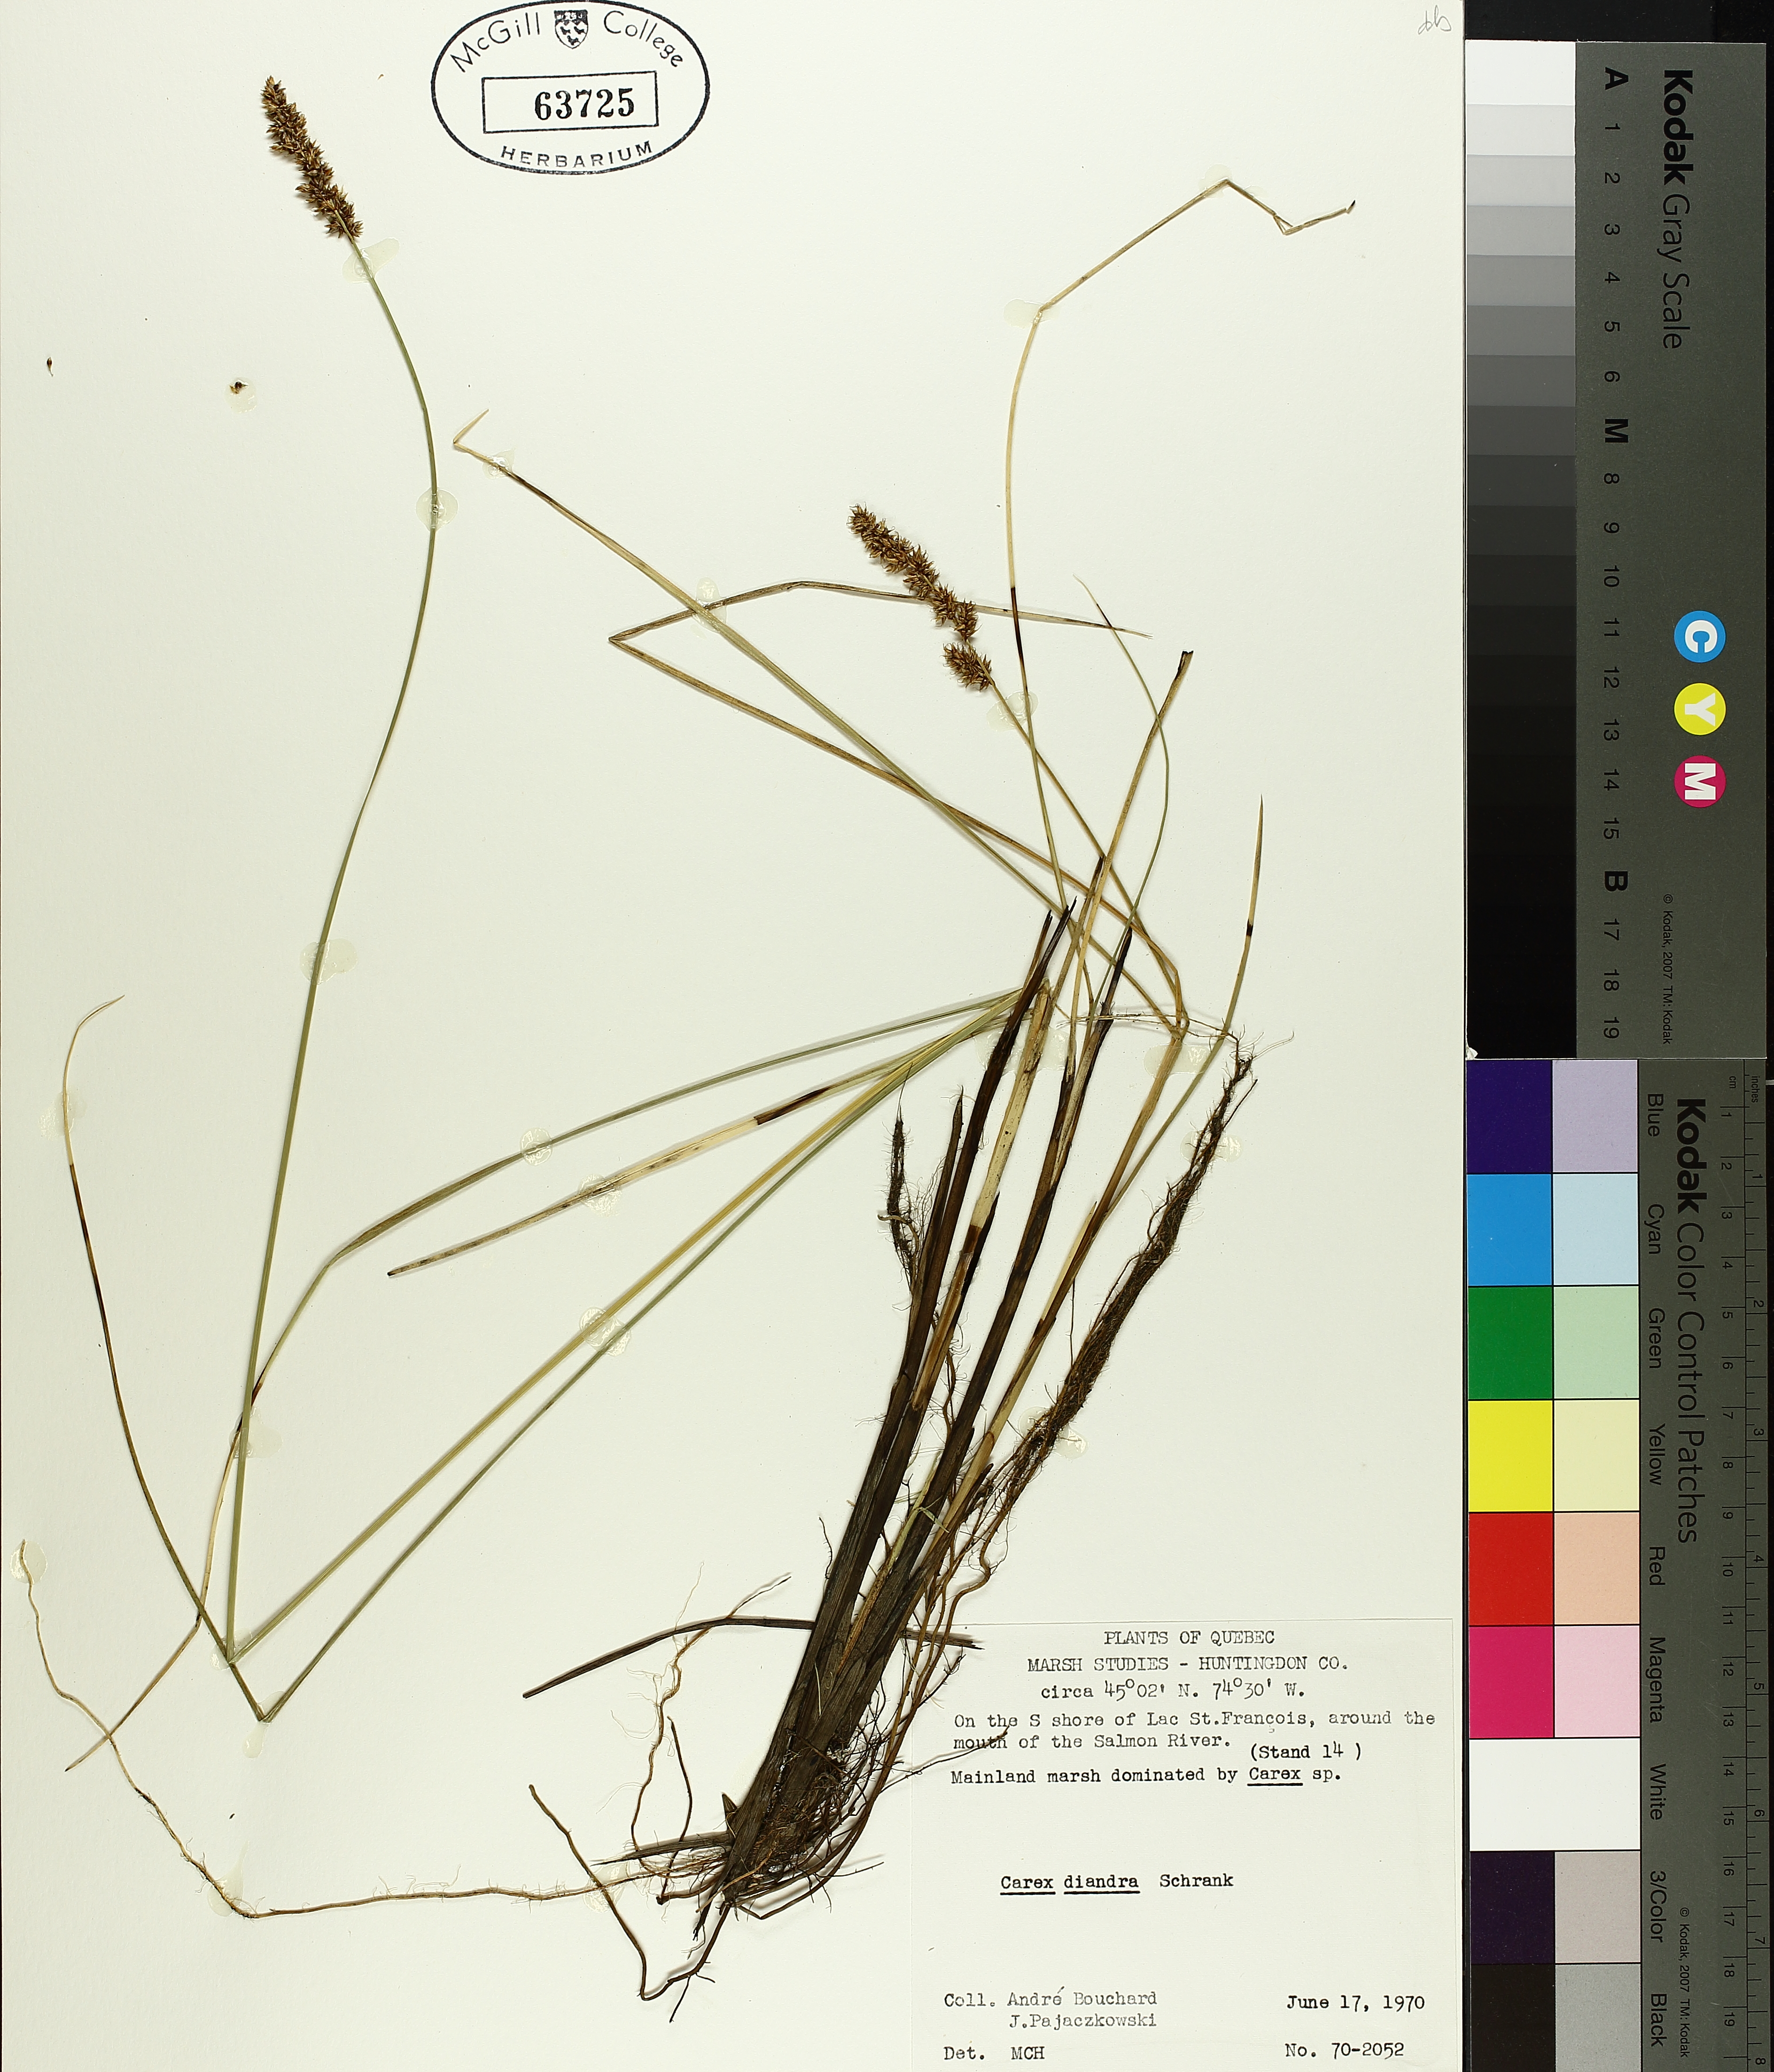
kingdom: Plantae
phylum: Tracheophyta
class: Liliopsida
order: Poales
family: Cyperaceae
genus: Carex
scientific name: Carex diandra
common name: Lesser tussock-sedge
